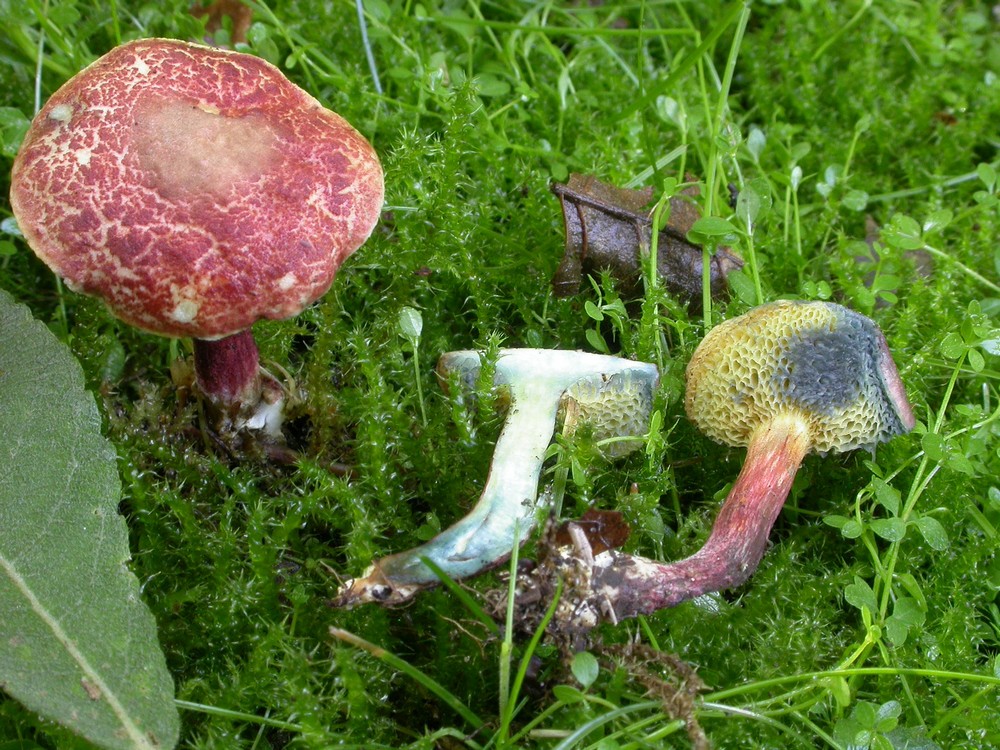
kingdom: Fungi
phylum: Basidiomycota
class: Agaricomycetes
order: Boletales
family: Boletaceae
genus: Xerocomellus
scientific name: Xerocomellus ripariellus
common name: sump-rørhat
